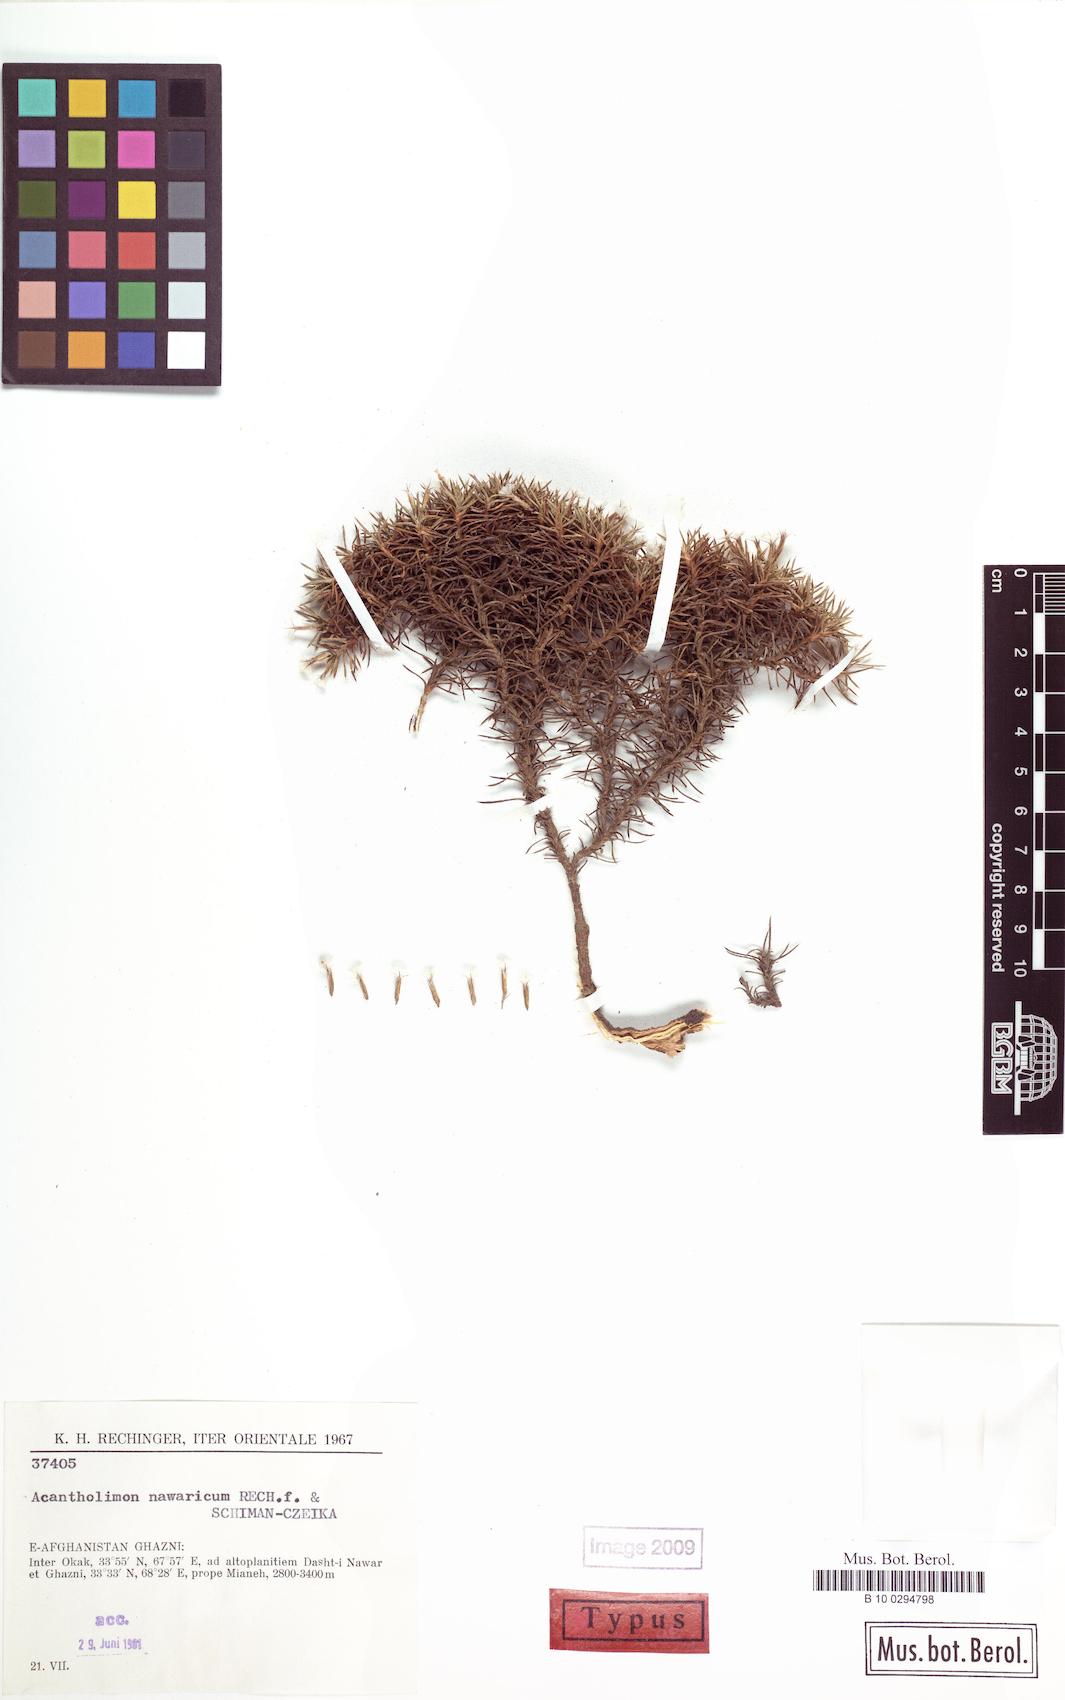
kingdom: Plantae
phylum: Tracheophyta
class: Magnoliopsida
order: Caryophyllales
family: Plumbaginaceae
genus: Acantholimon
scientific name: Acantholimon nawaricum
